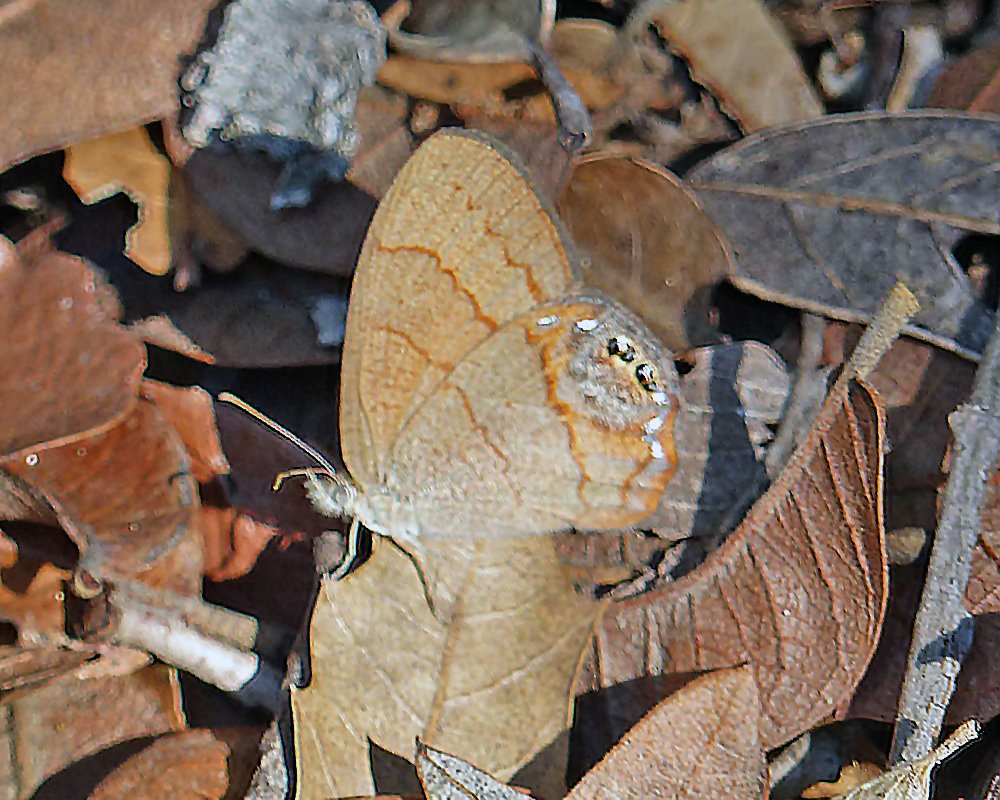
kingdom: Animalia
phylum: Arthropoda
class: Insecta
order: Lepidoptera
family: Nymphalidae
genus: Euptychia
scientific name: Euptychia pyracmon
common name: Nabokov's Satyr
